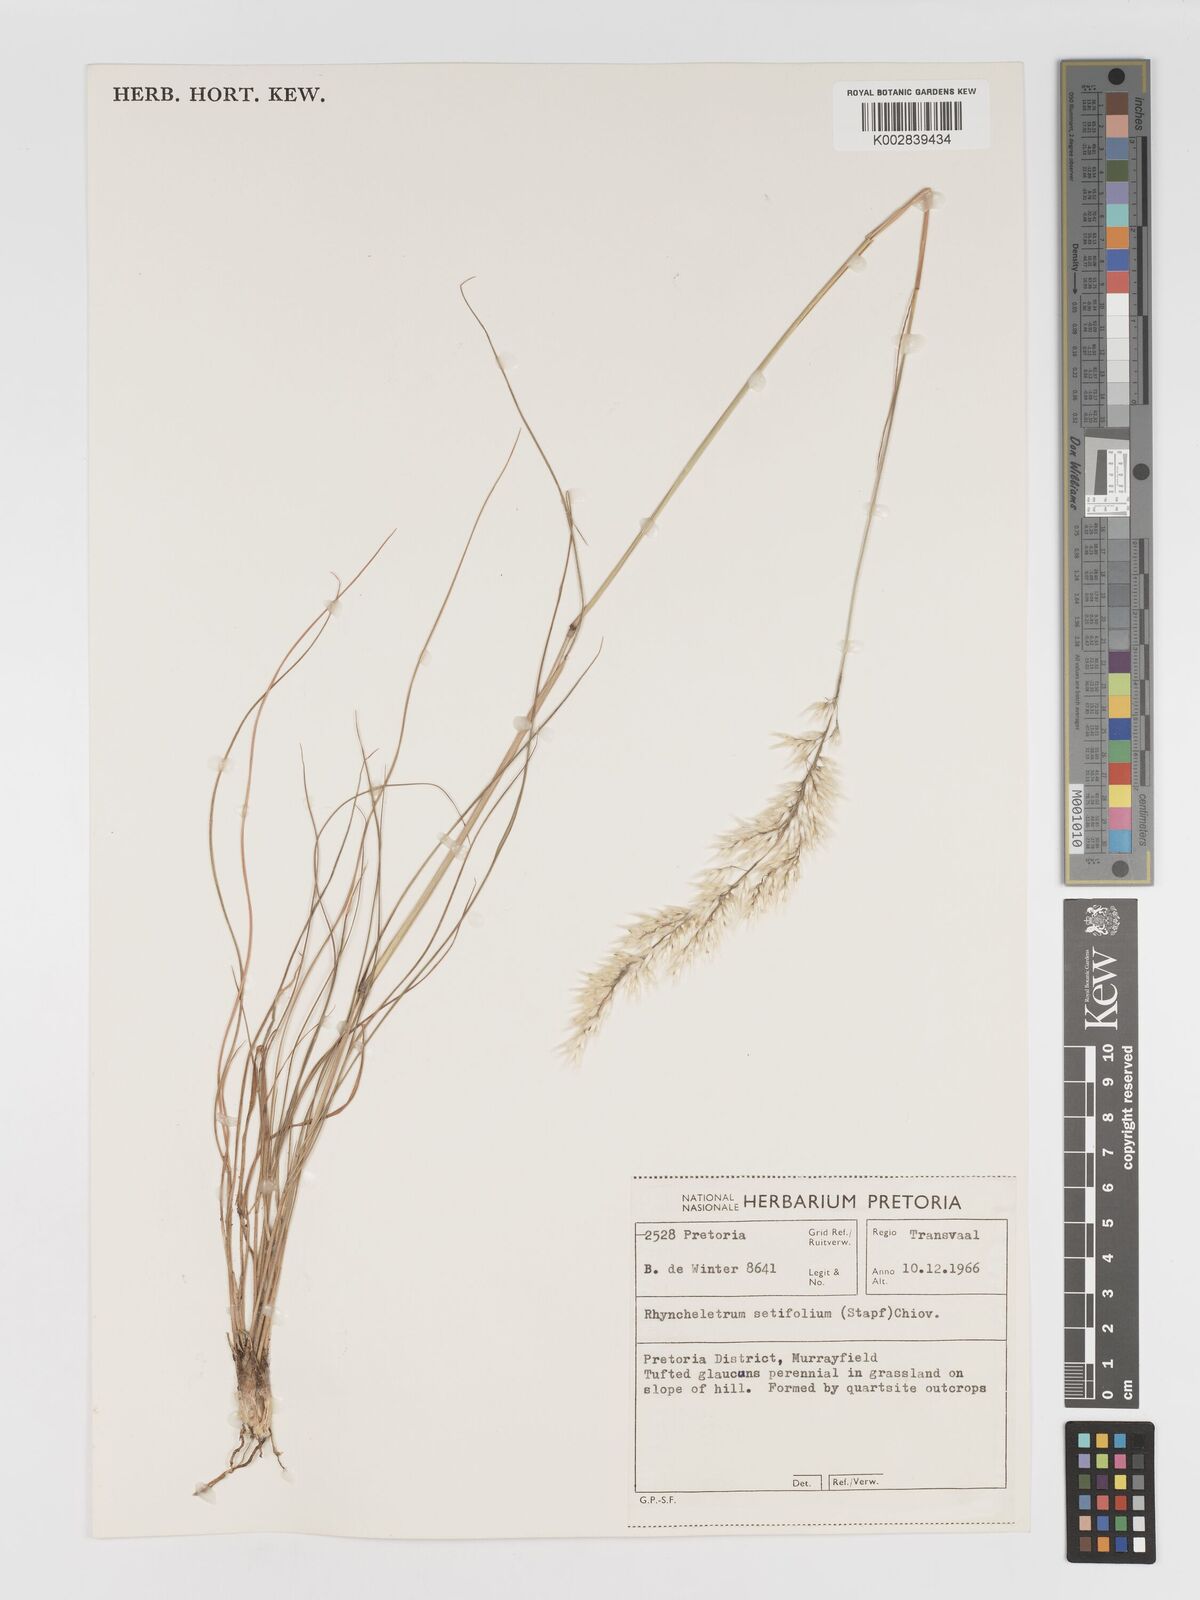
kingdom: Plantae
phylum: Tracheophyta
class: Liliopsida
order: Poales
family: Poaceae
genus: Melinis
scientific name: Melinis nerviglumis
